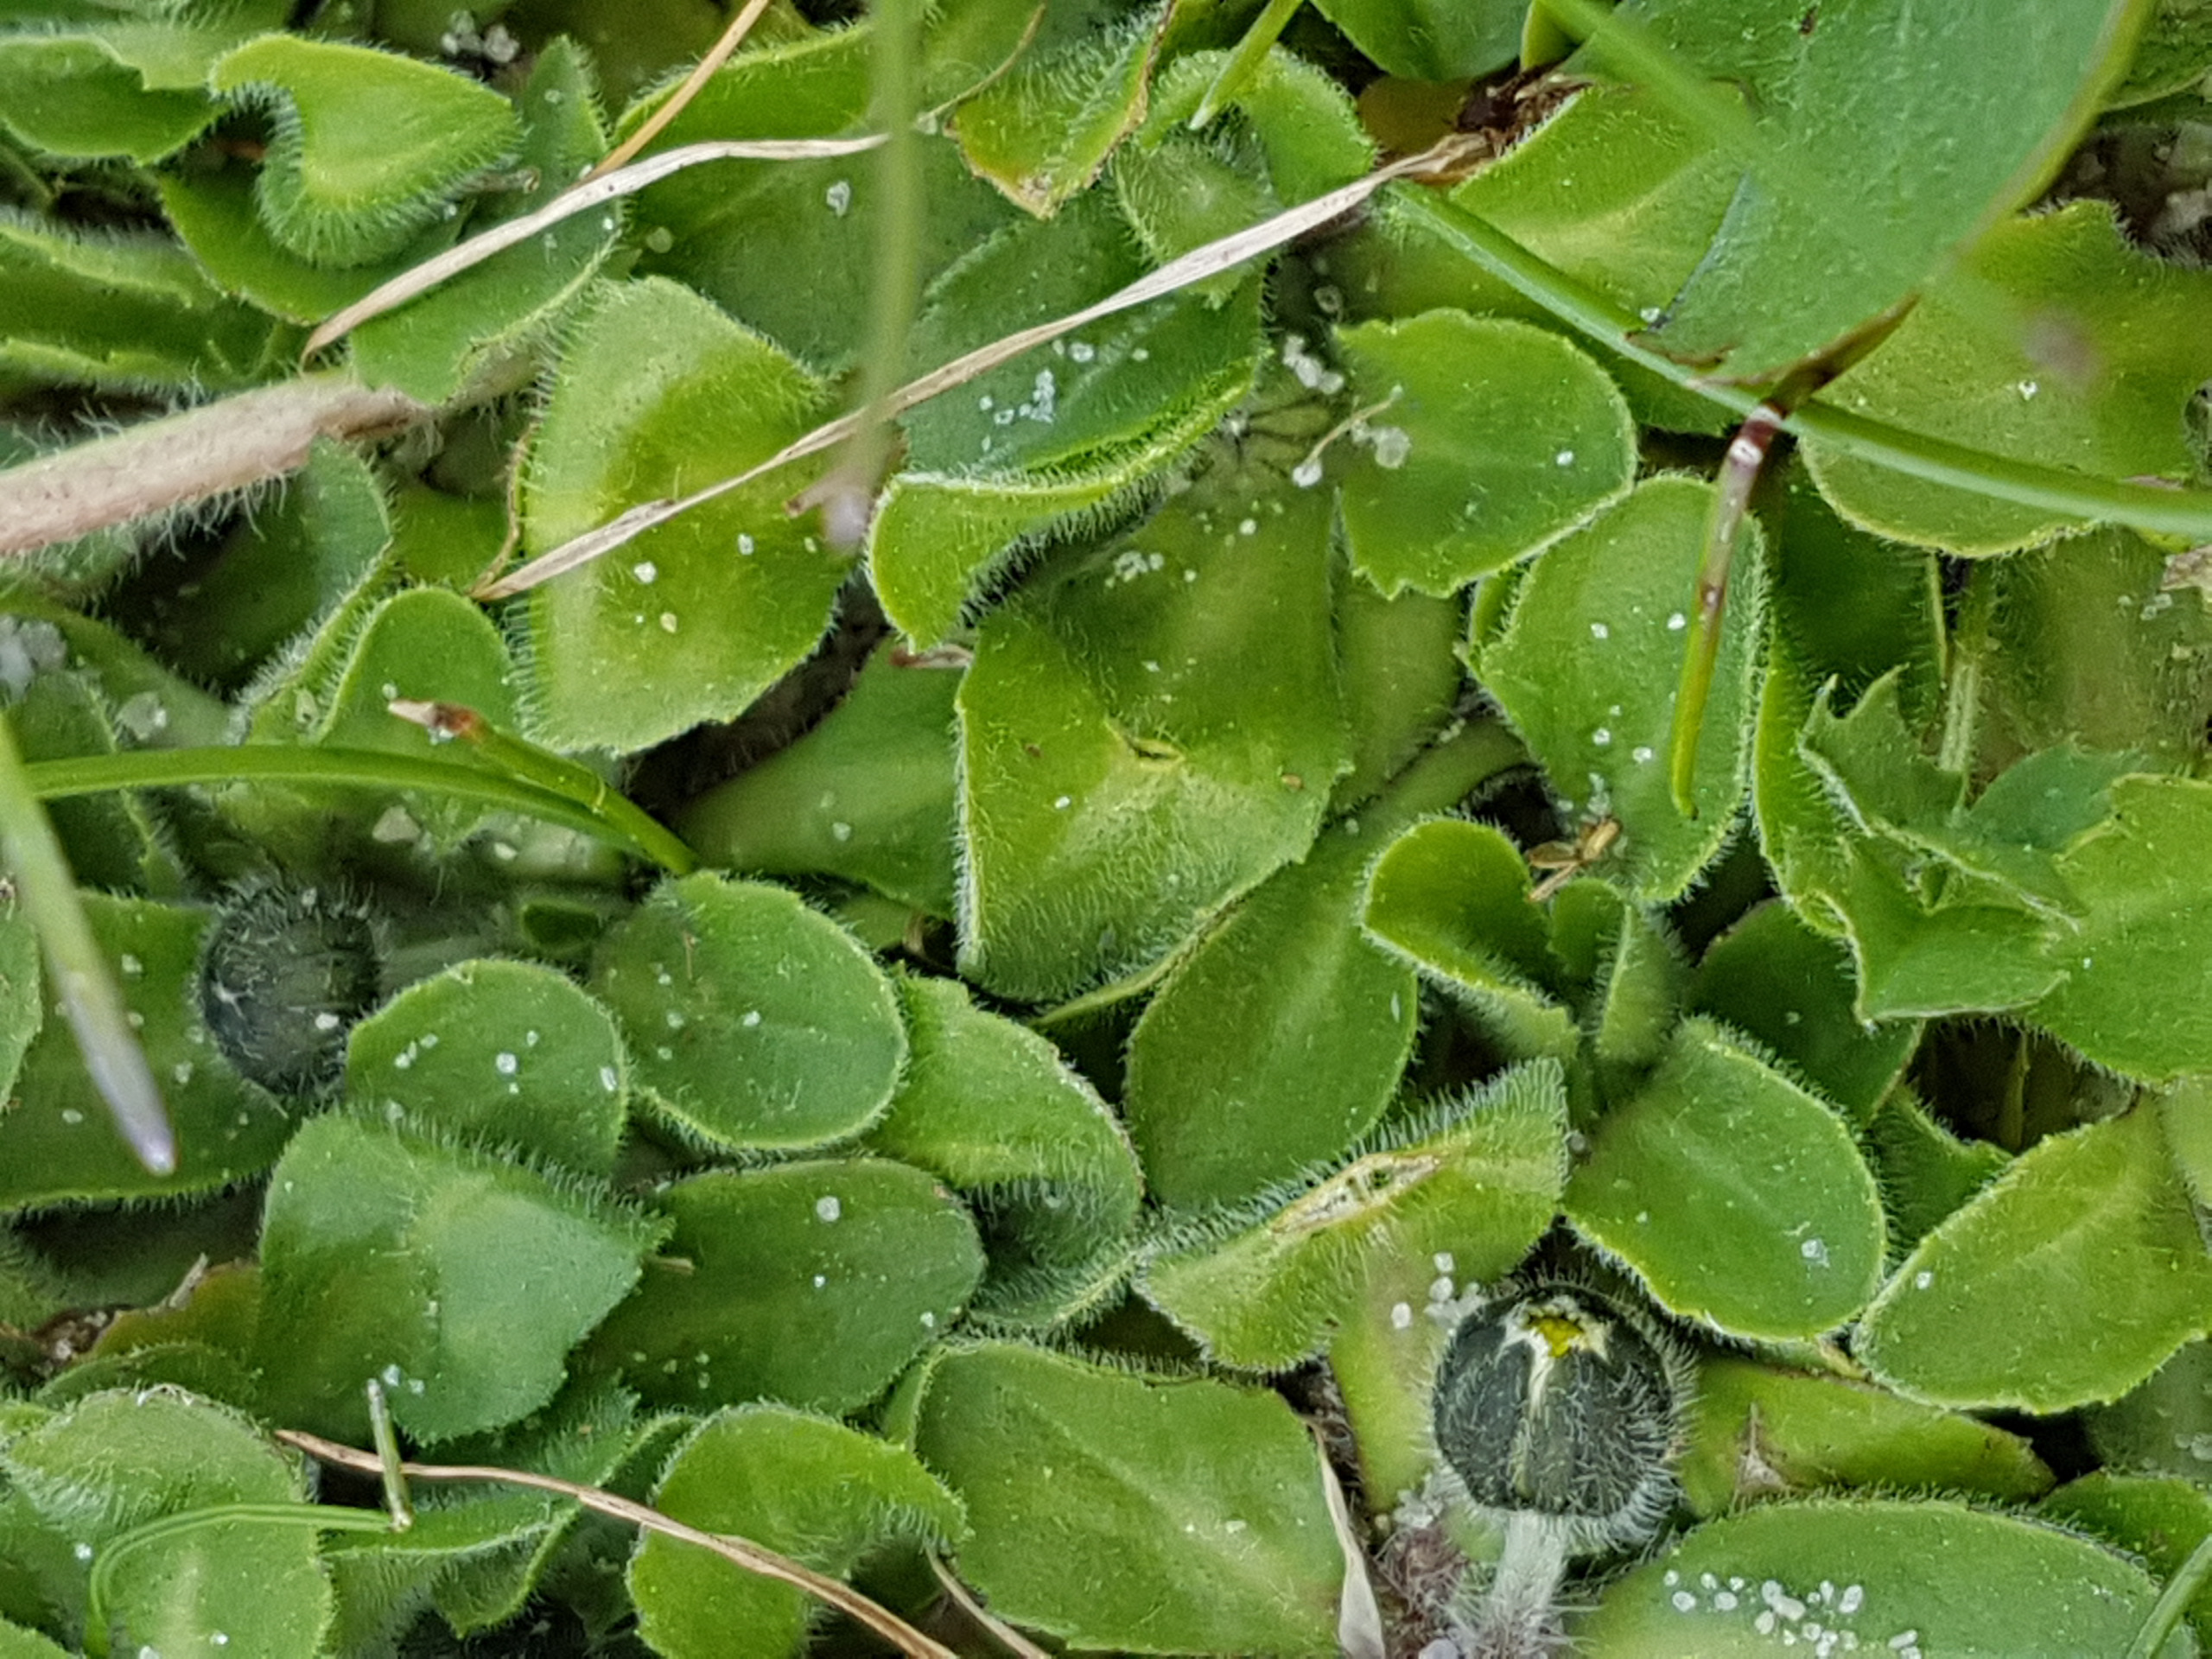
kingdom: Plantae
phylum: Tracheophyta
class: Magnoliopsida
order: Asterales
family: Asteraceae
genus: Bellis
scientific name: Bellis perennis
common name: Tusindfryd
